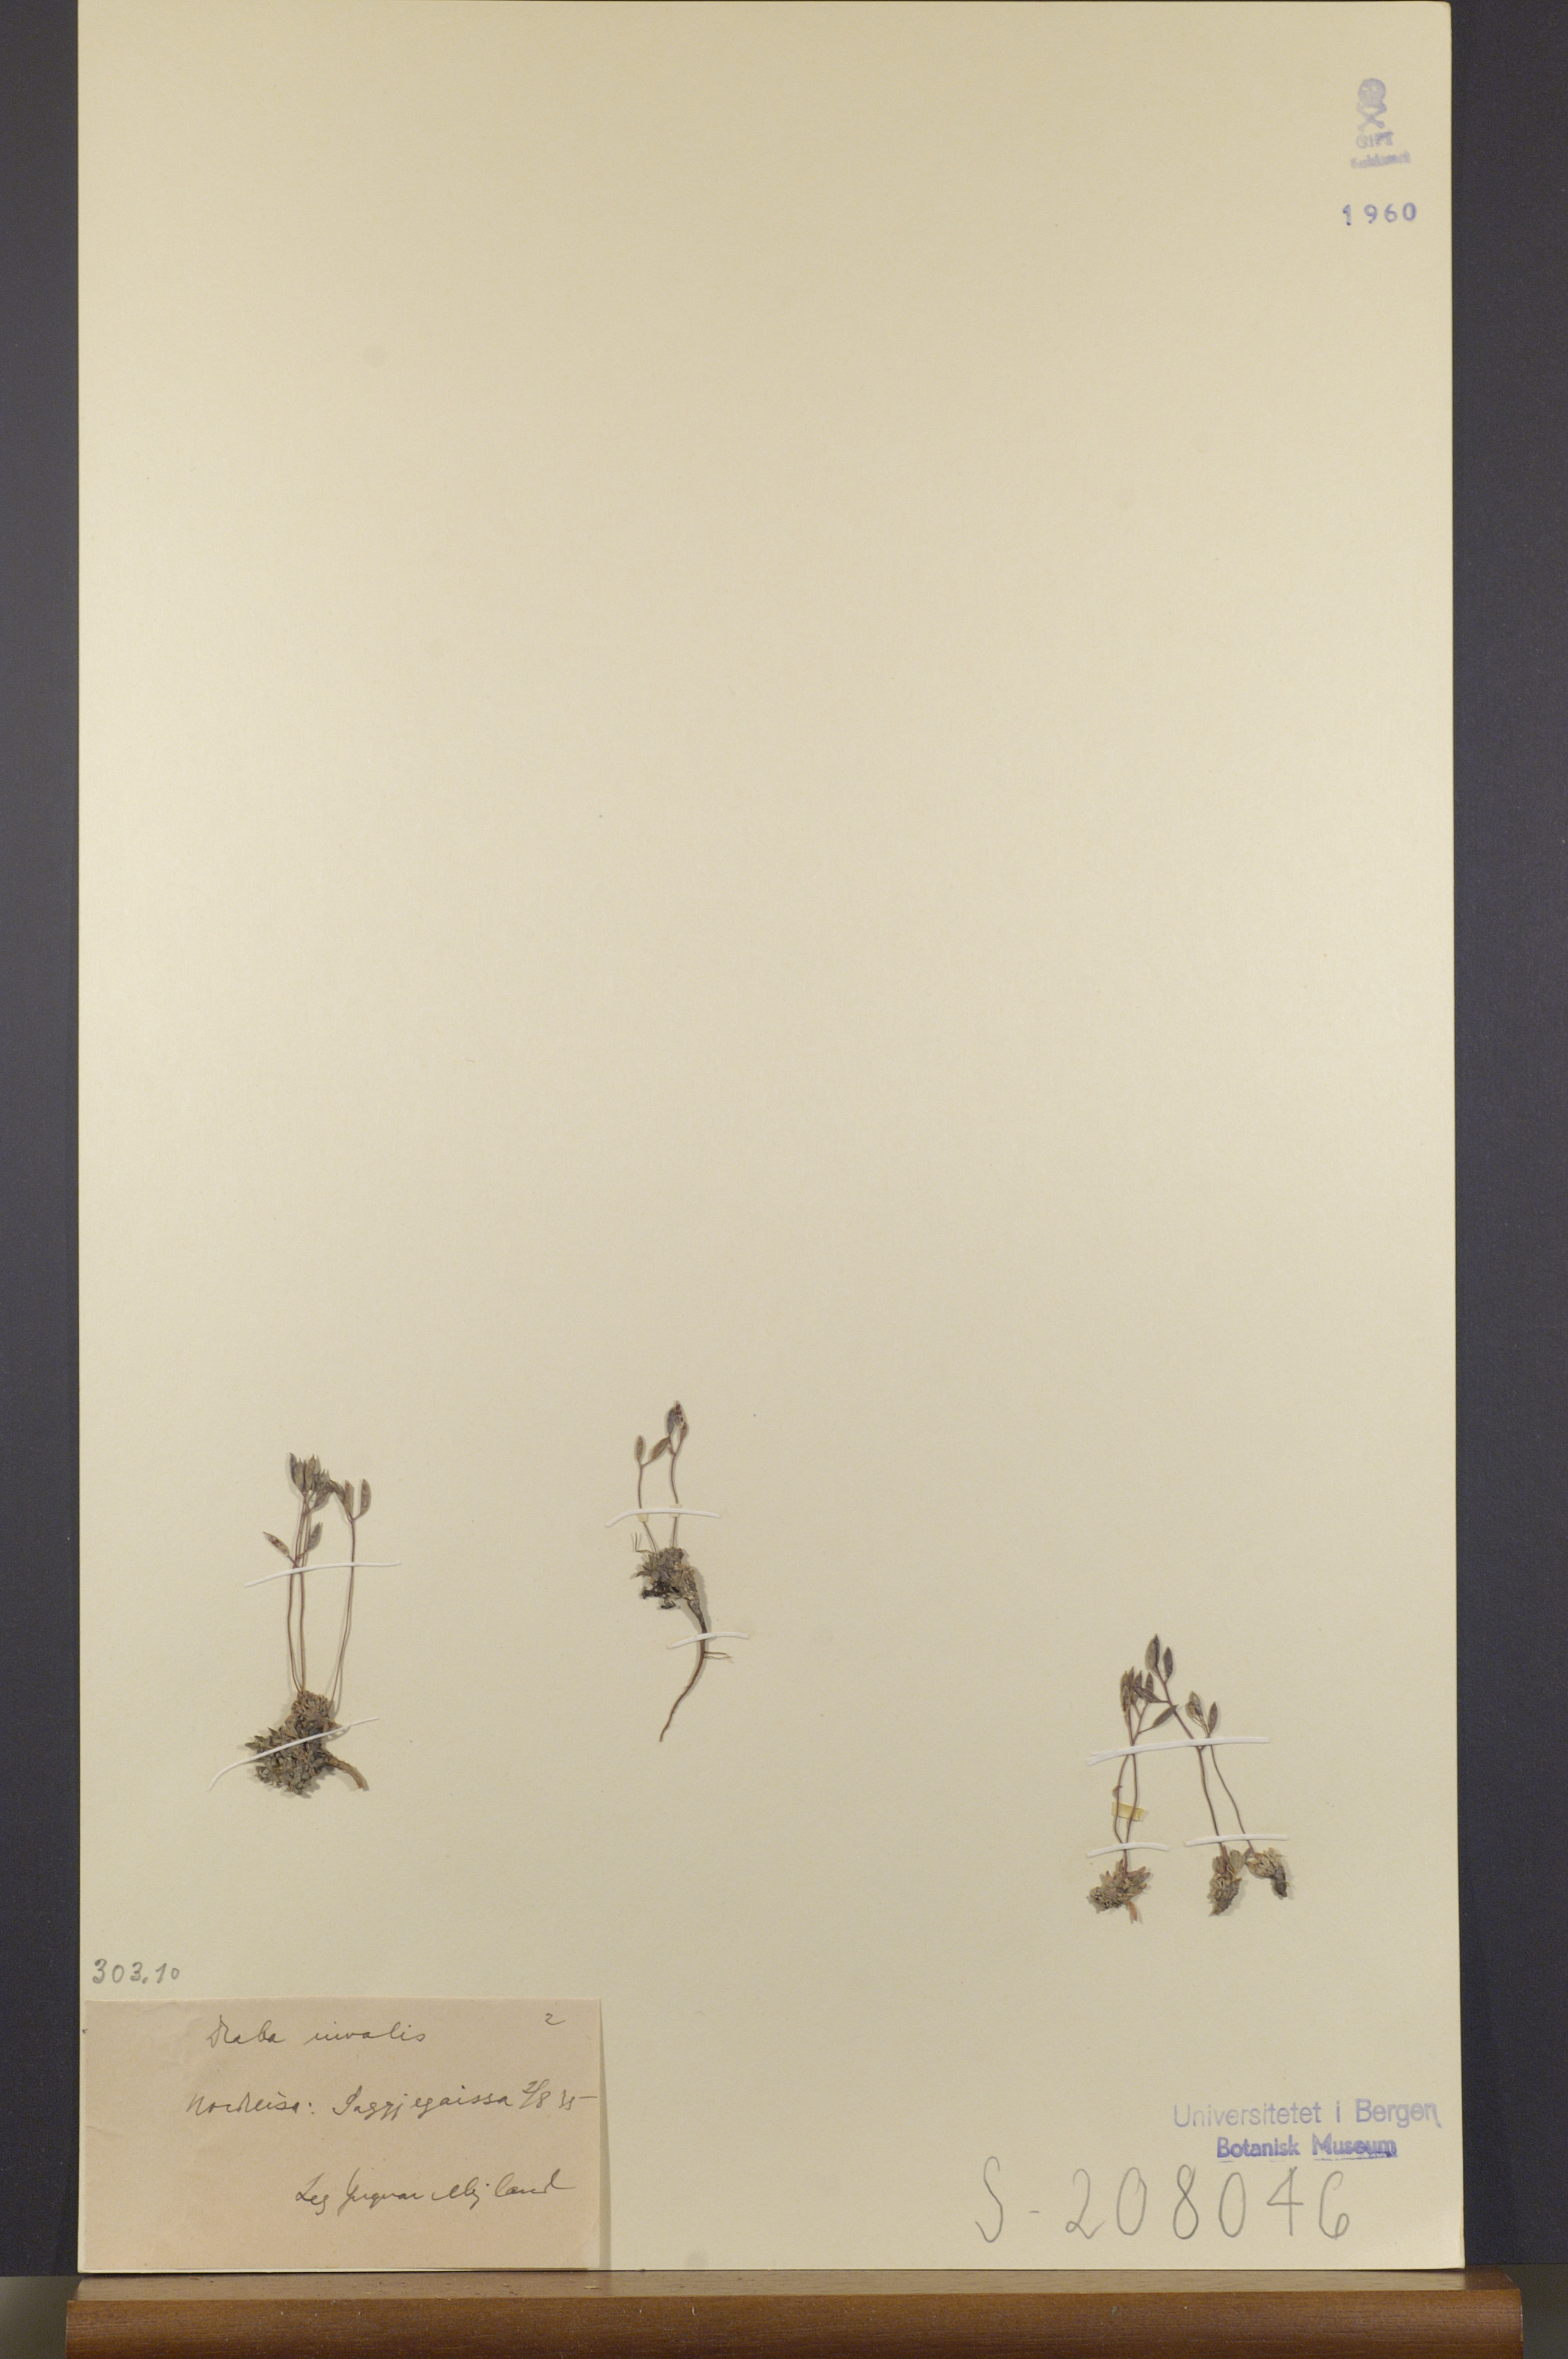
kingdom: Plantae
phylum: Tracheophyta
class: Magnoliopsida
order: Brassicales
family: Brassicaceae
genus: Draba
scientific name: Draba nivalis
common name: Snow draba
